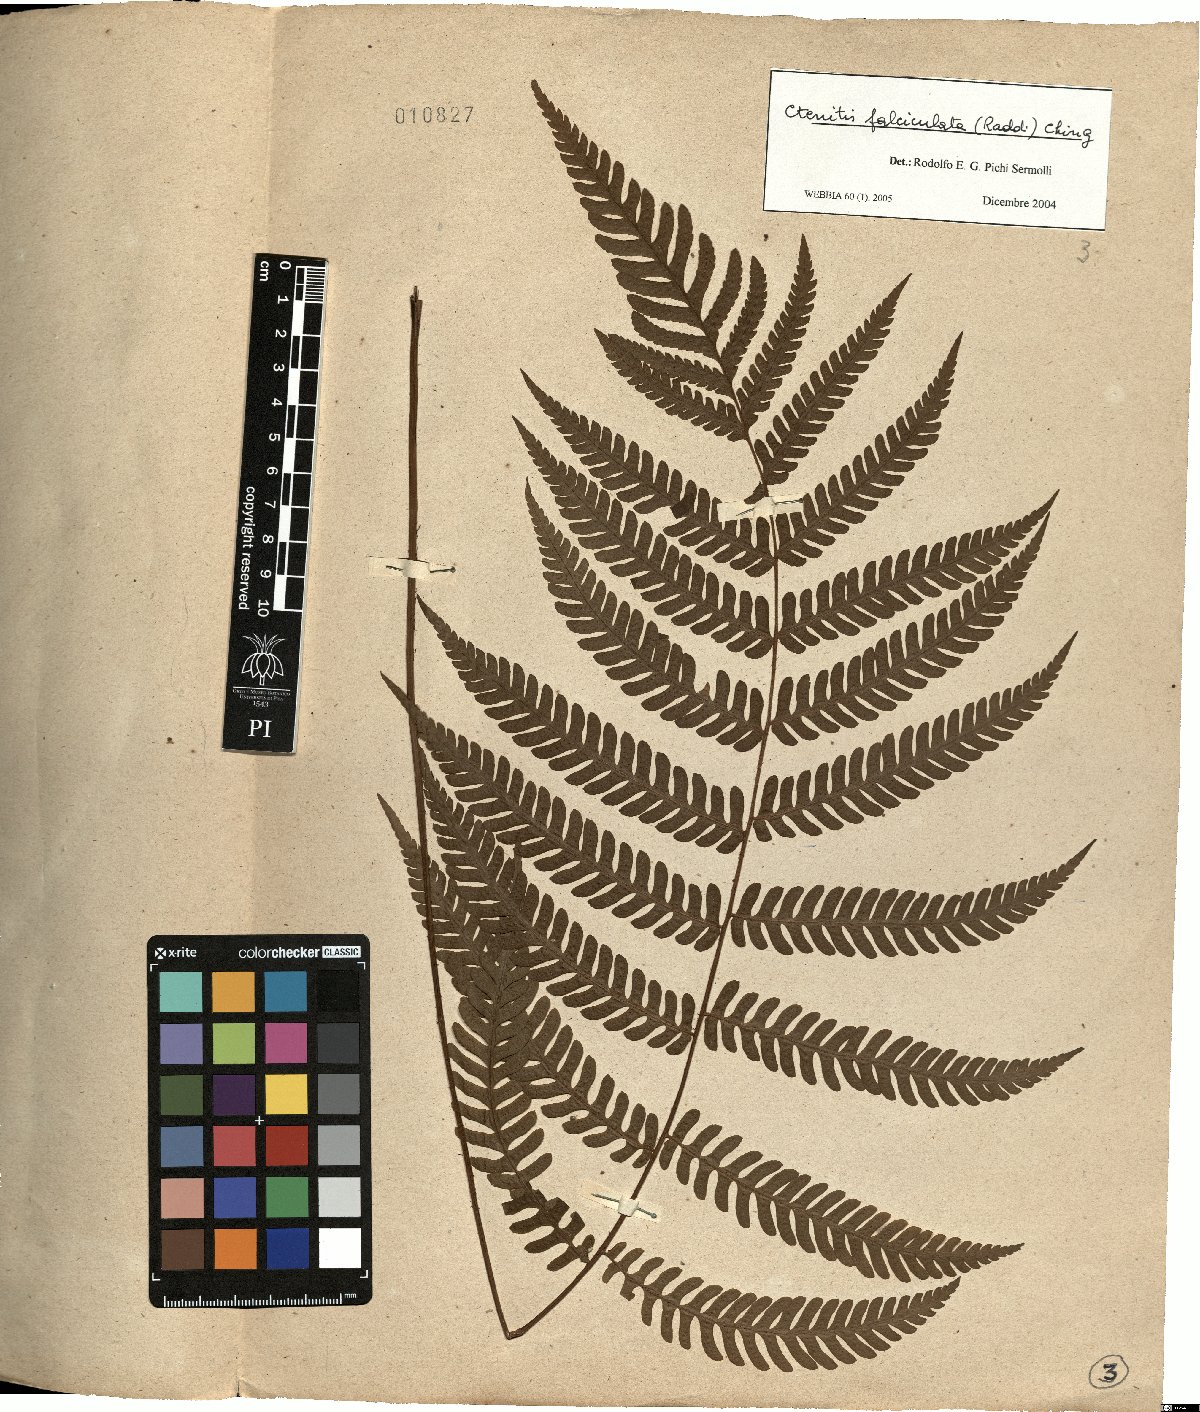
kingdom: Plantae
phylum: Tracheophyta
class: Polypodiopsida
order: Polypodiales
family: Dryopteridaceae
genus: Ctenitis
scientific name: Ctenitis falciculata
